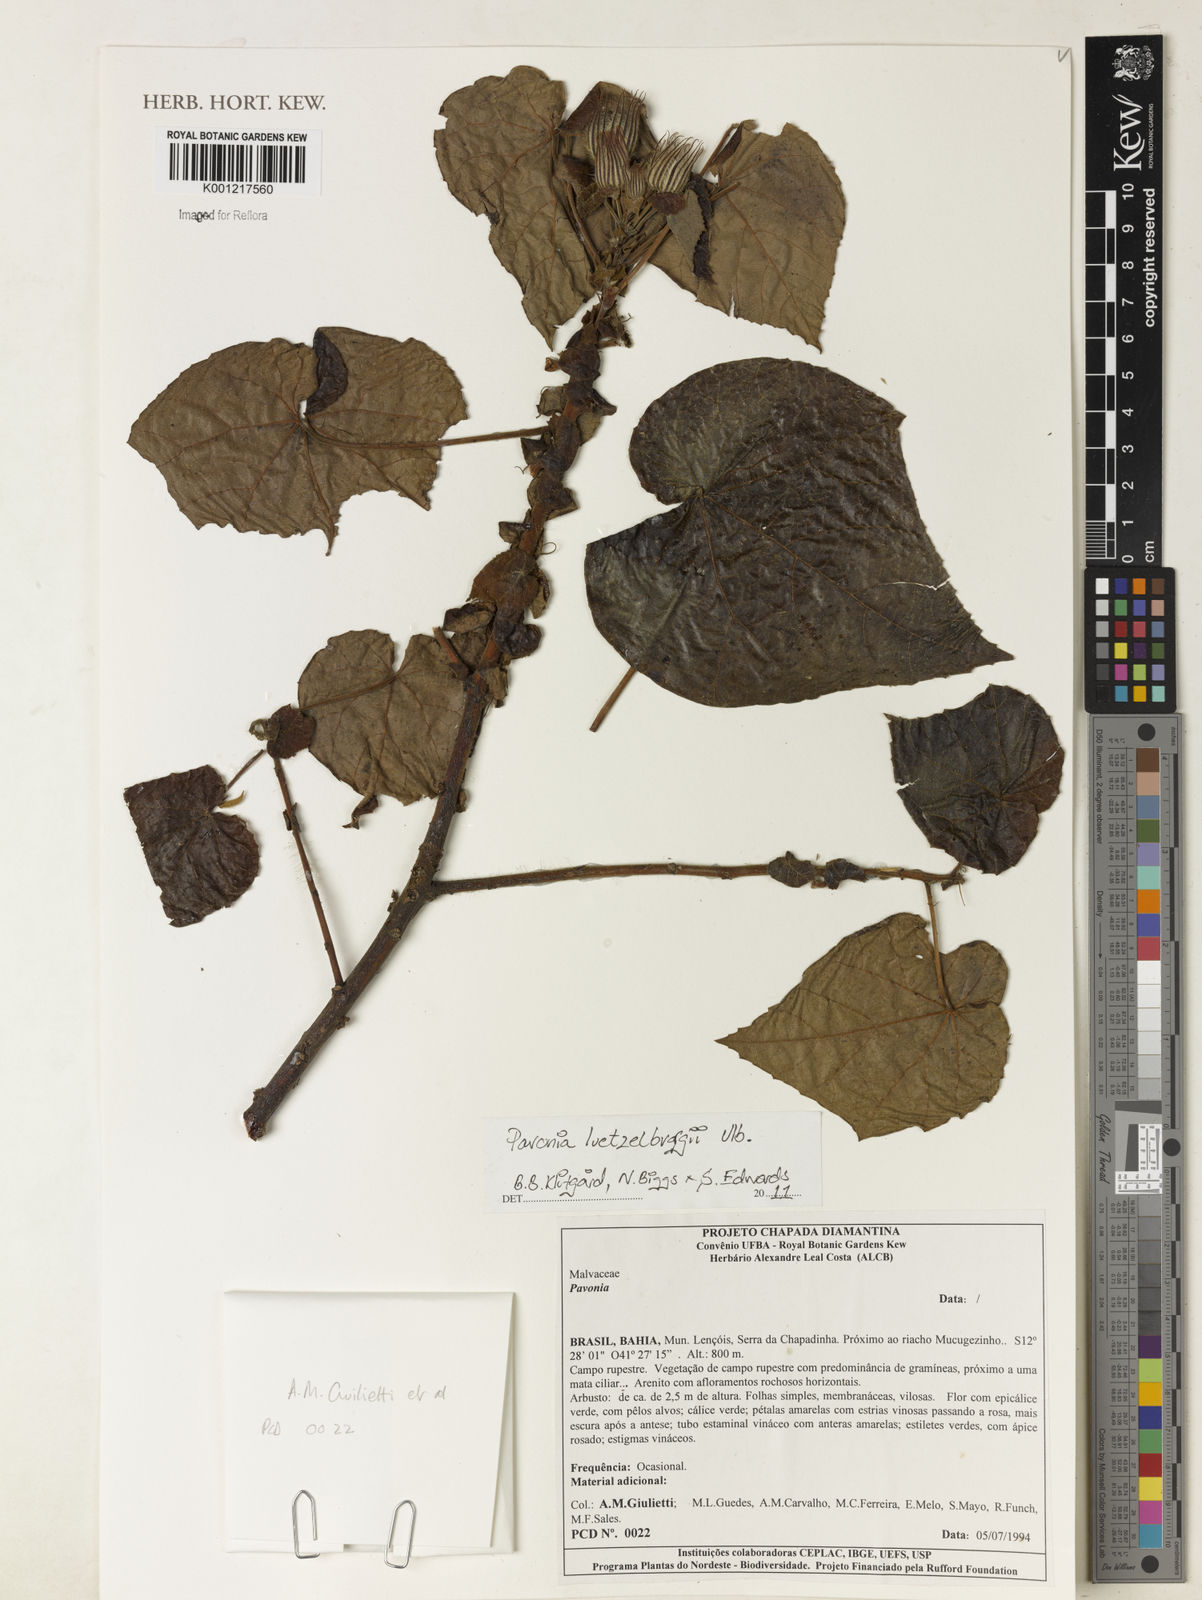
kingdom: Plantae
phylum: Tracheophyta
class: Magnoliopsida
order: Malvales
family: Malvaceae
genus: Pavonia
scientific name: Pavonia luetzelburgii
